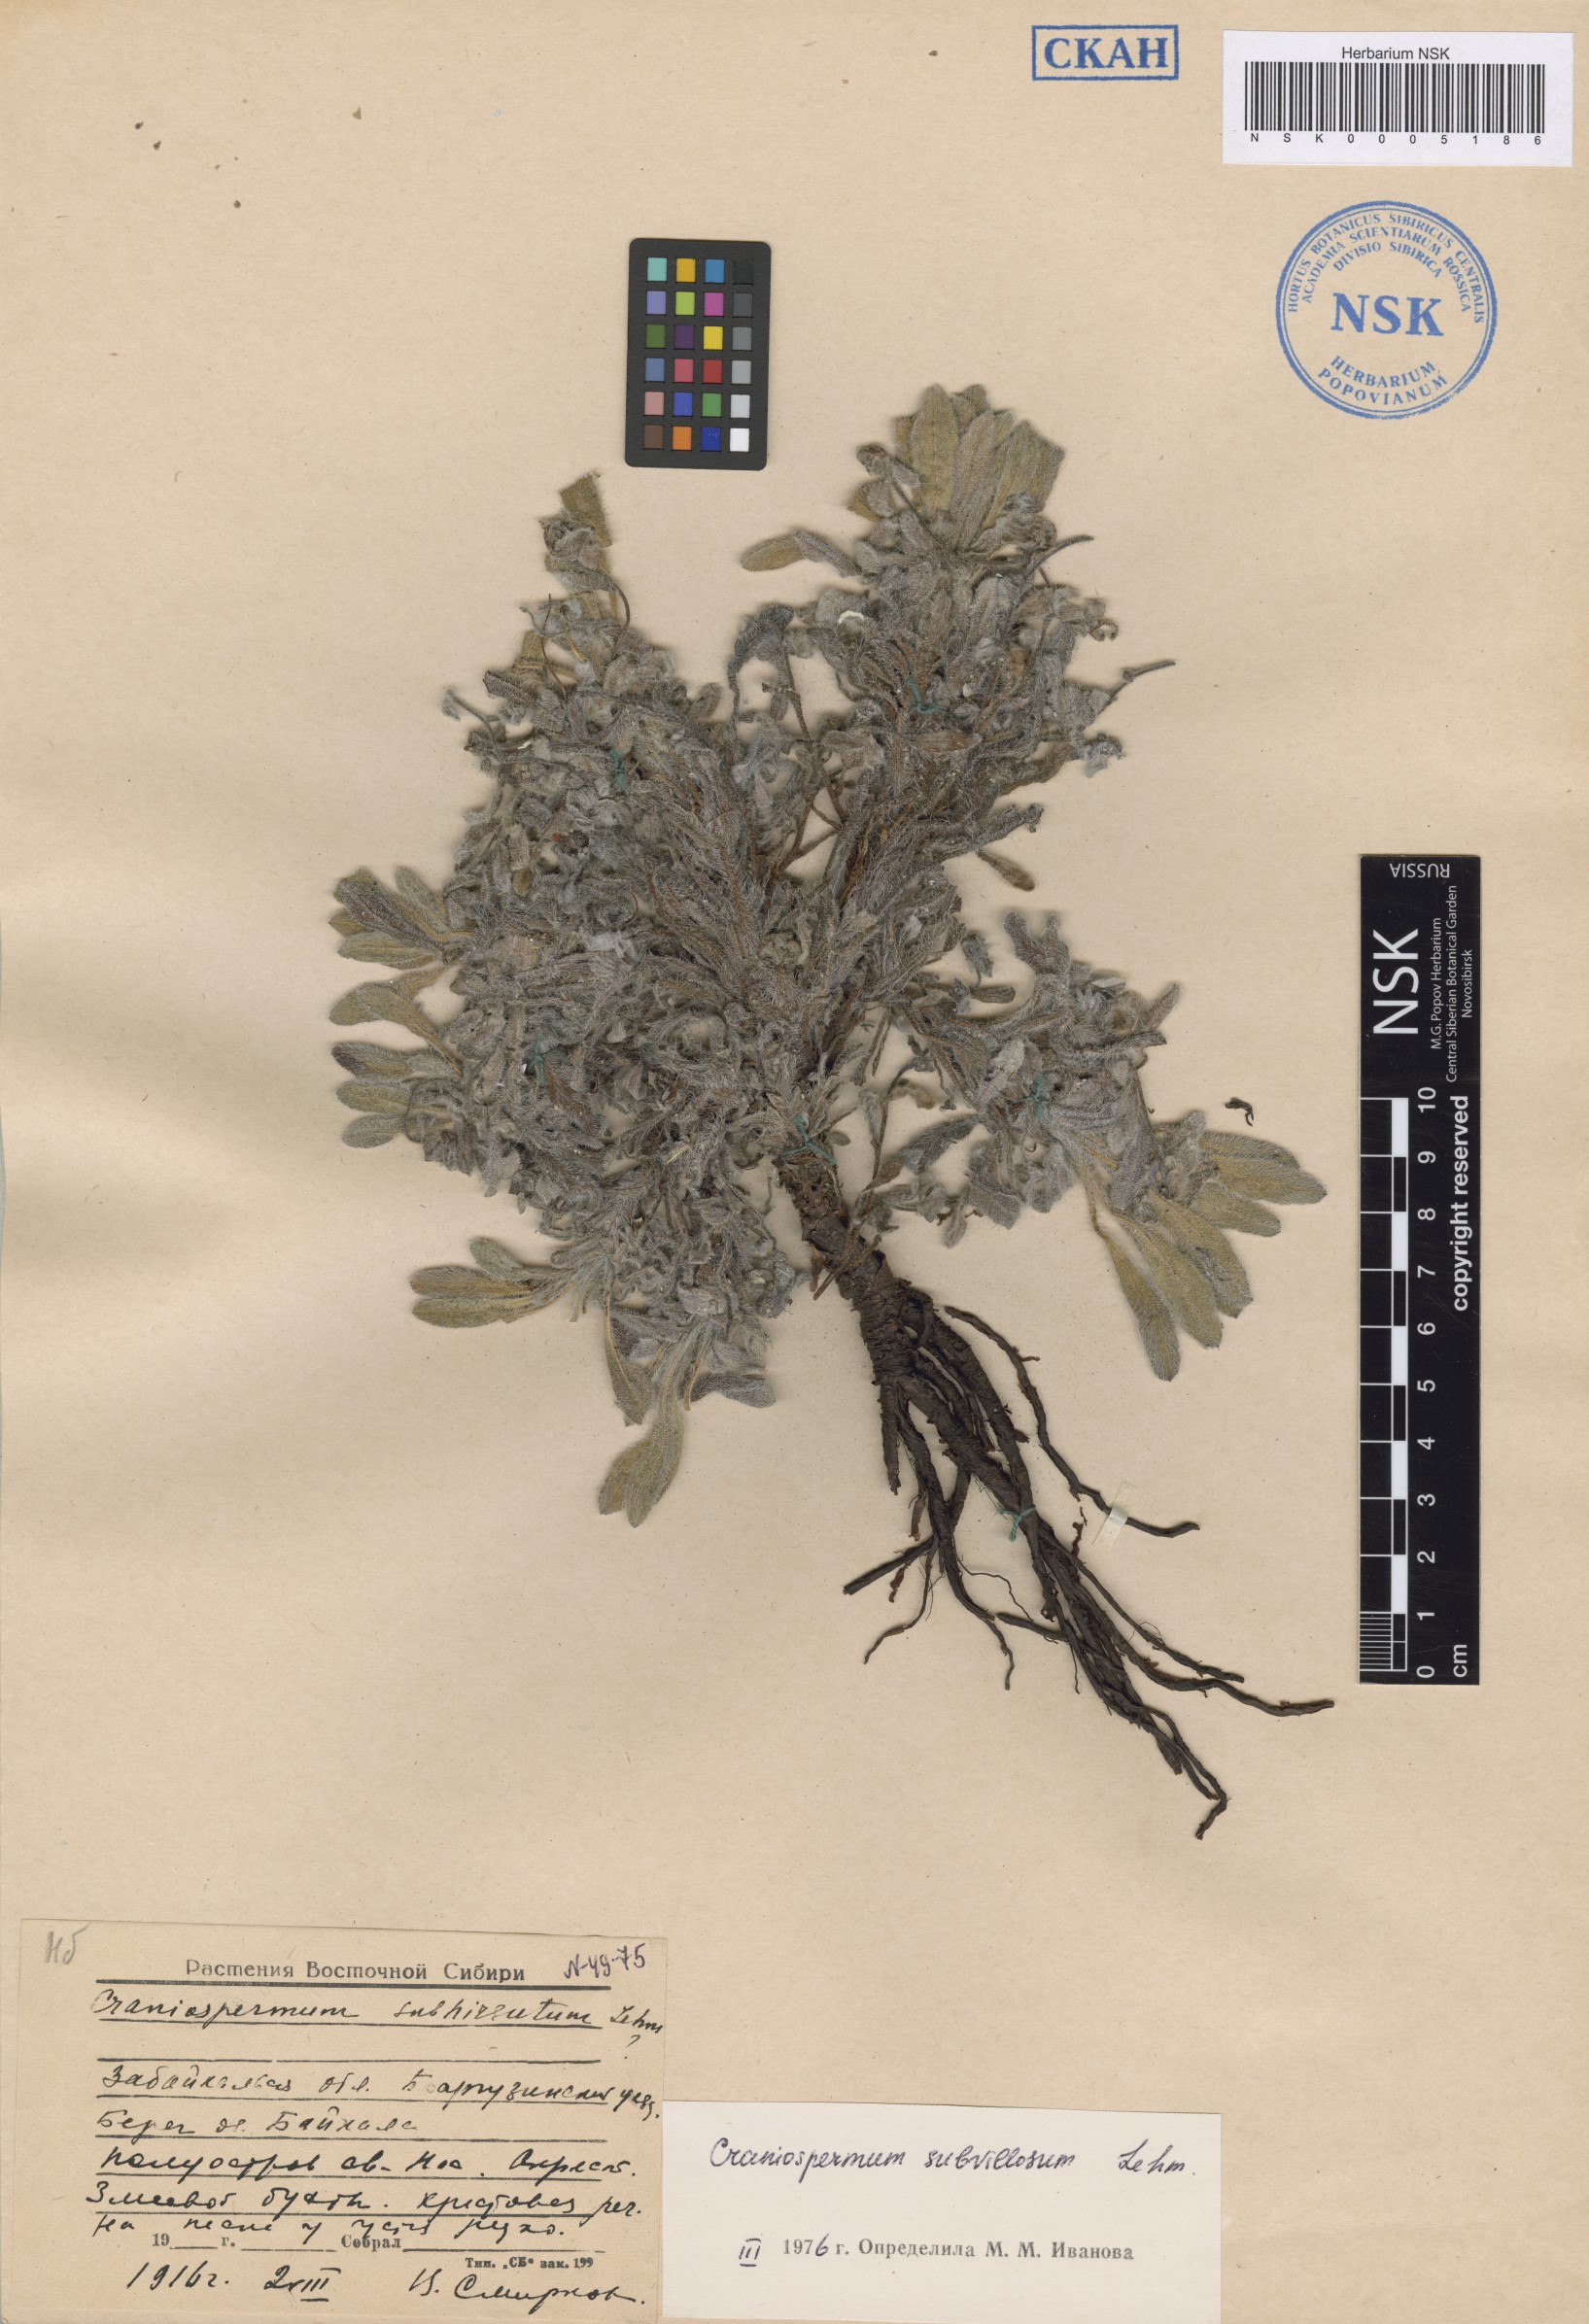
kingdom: Plantae
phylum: Tracheophyta
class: Magnoliopsida
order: Boraginales
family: Boraginaceae
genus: Craniospermum
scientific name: Craniospermum subvillosum
